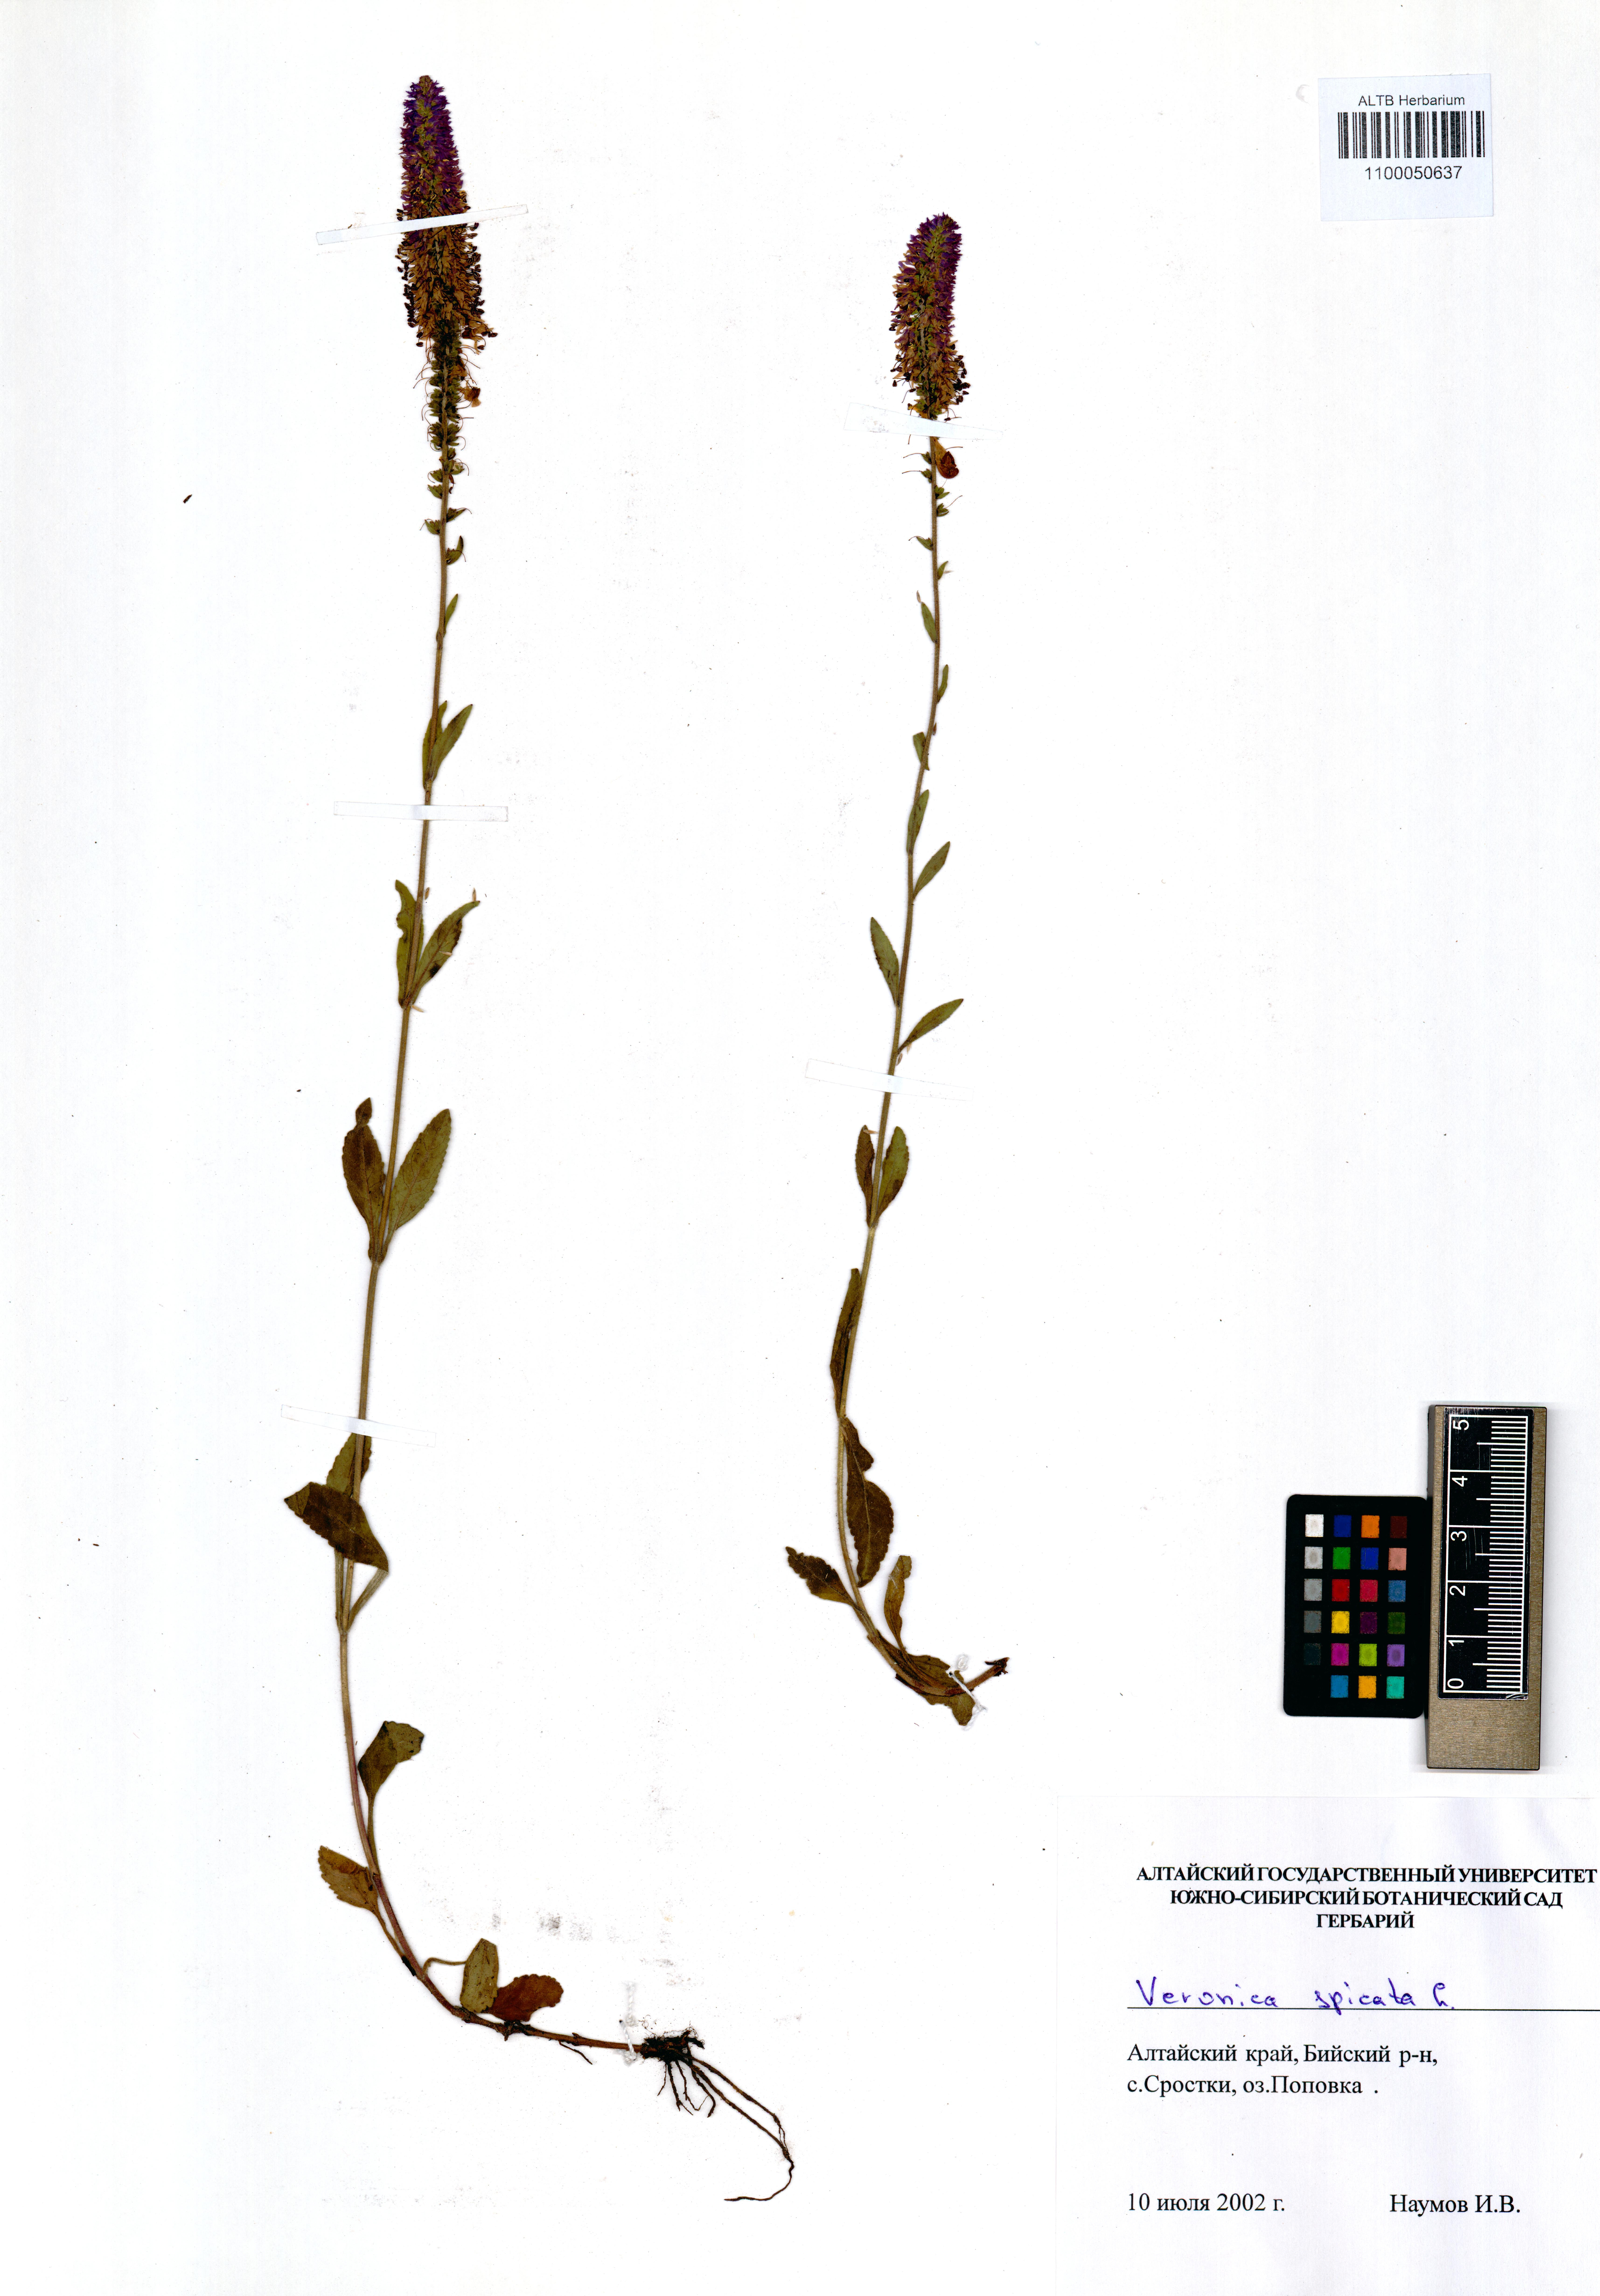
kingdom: Plantae
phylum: Tracheophyta
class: Magnoliopsida
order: Lamiales
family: Plantaginaceae
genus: Veronica
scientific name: Veronica spicata
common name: Spiked speedwell
